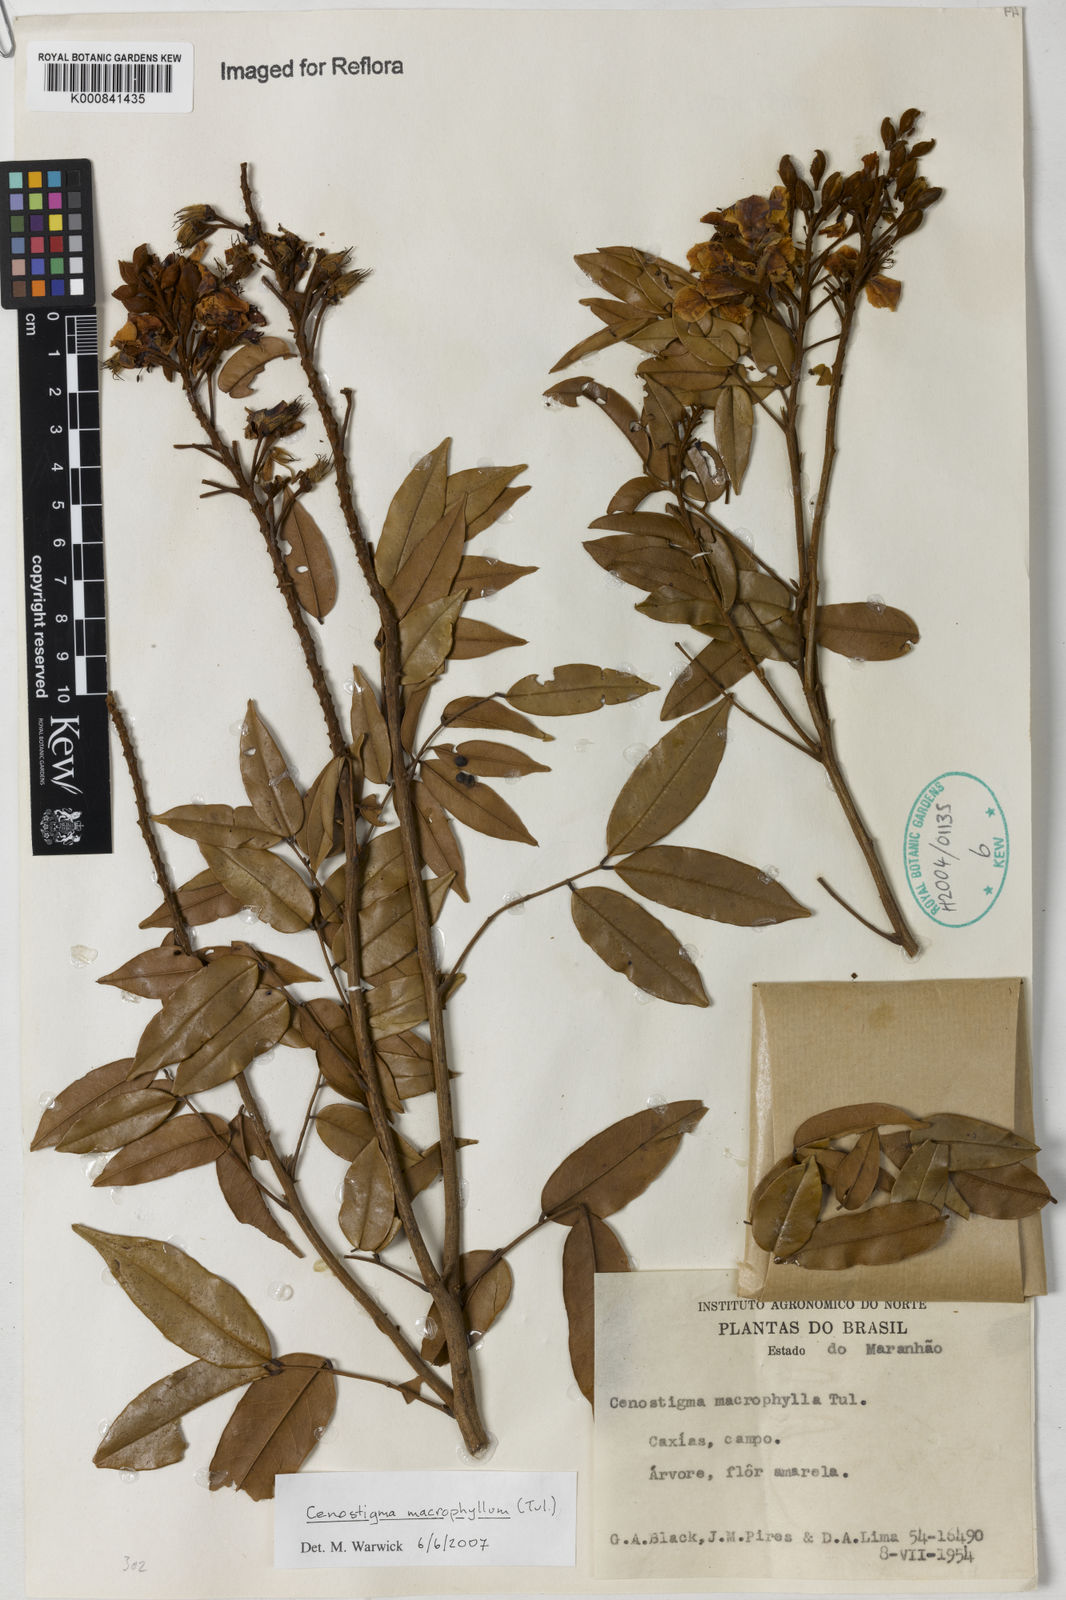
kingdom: Plantae
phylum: Tracheophyta
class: Magnoliopsida
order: Fabales
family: Fabaceae
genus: Cenostigma
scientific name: Cenostigma macrophyllum
